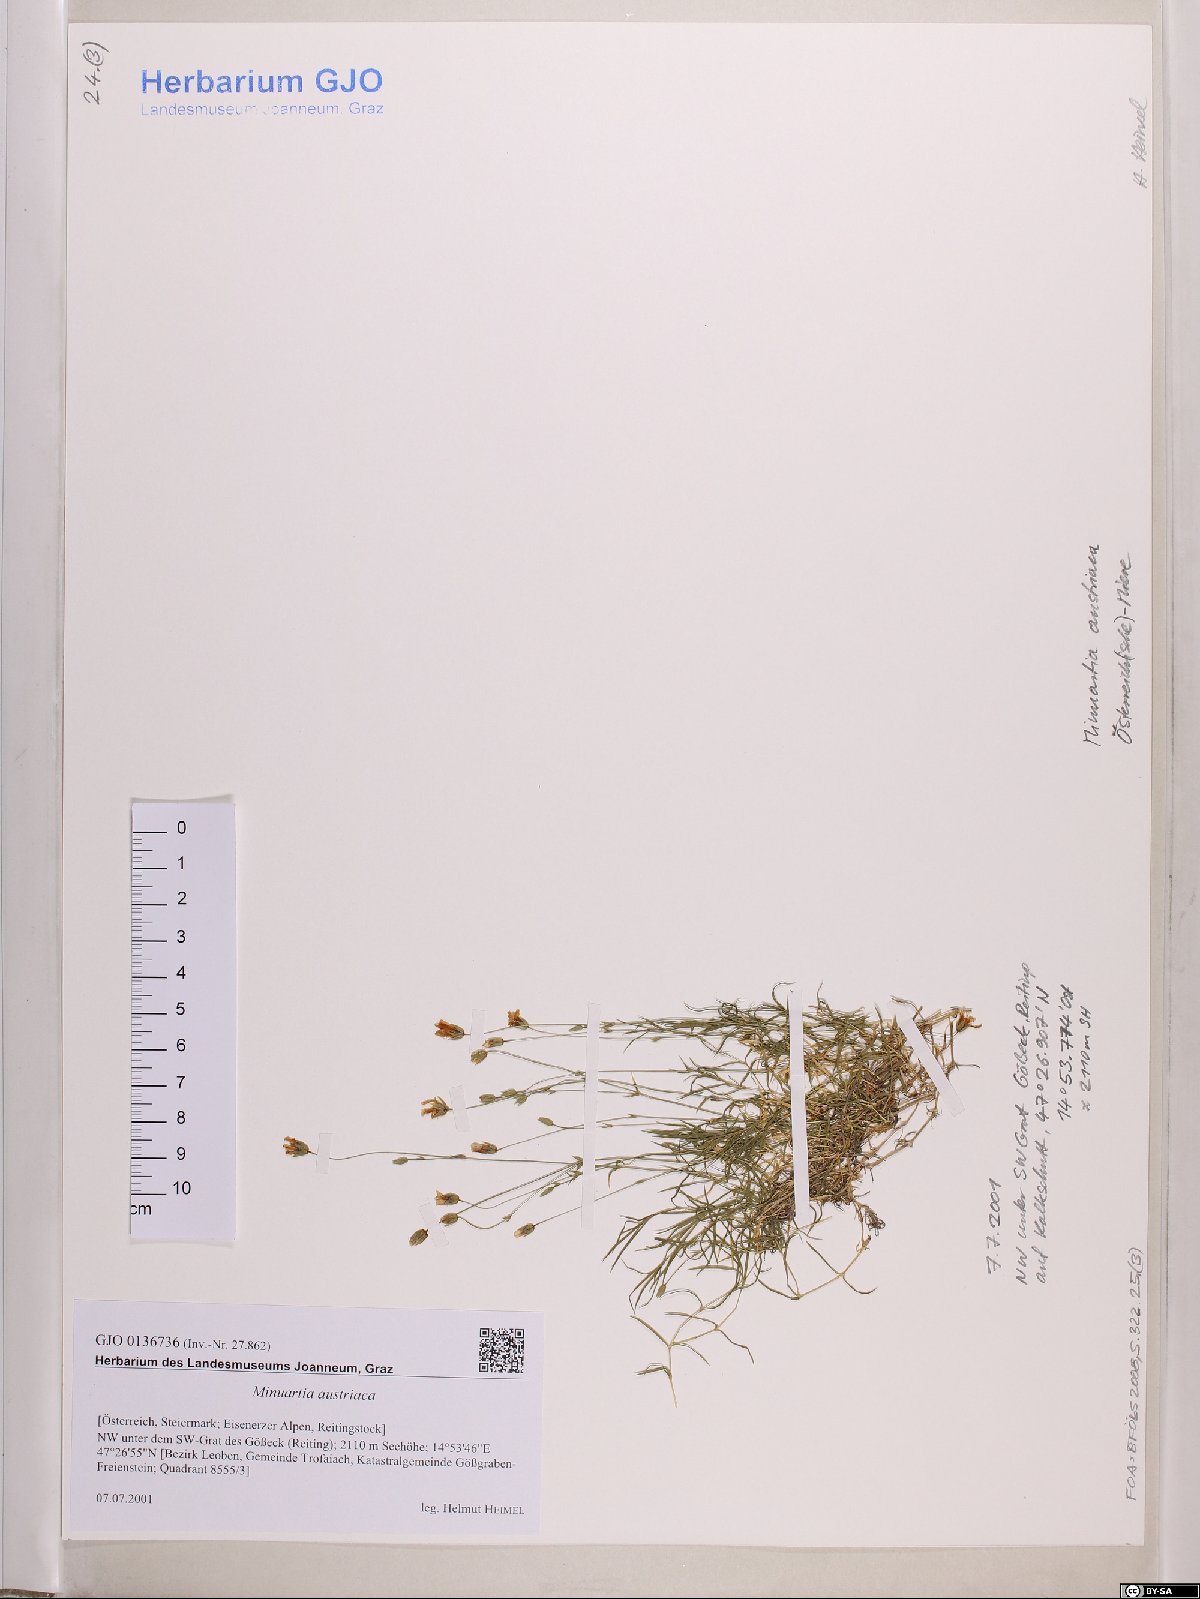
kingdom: Plantae
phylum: Tracheophyta
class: Magnoliopsida
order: Caryophyllales
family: Caryophyllaceae
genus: Sabulina
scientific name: Sabulina austriaca
